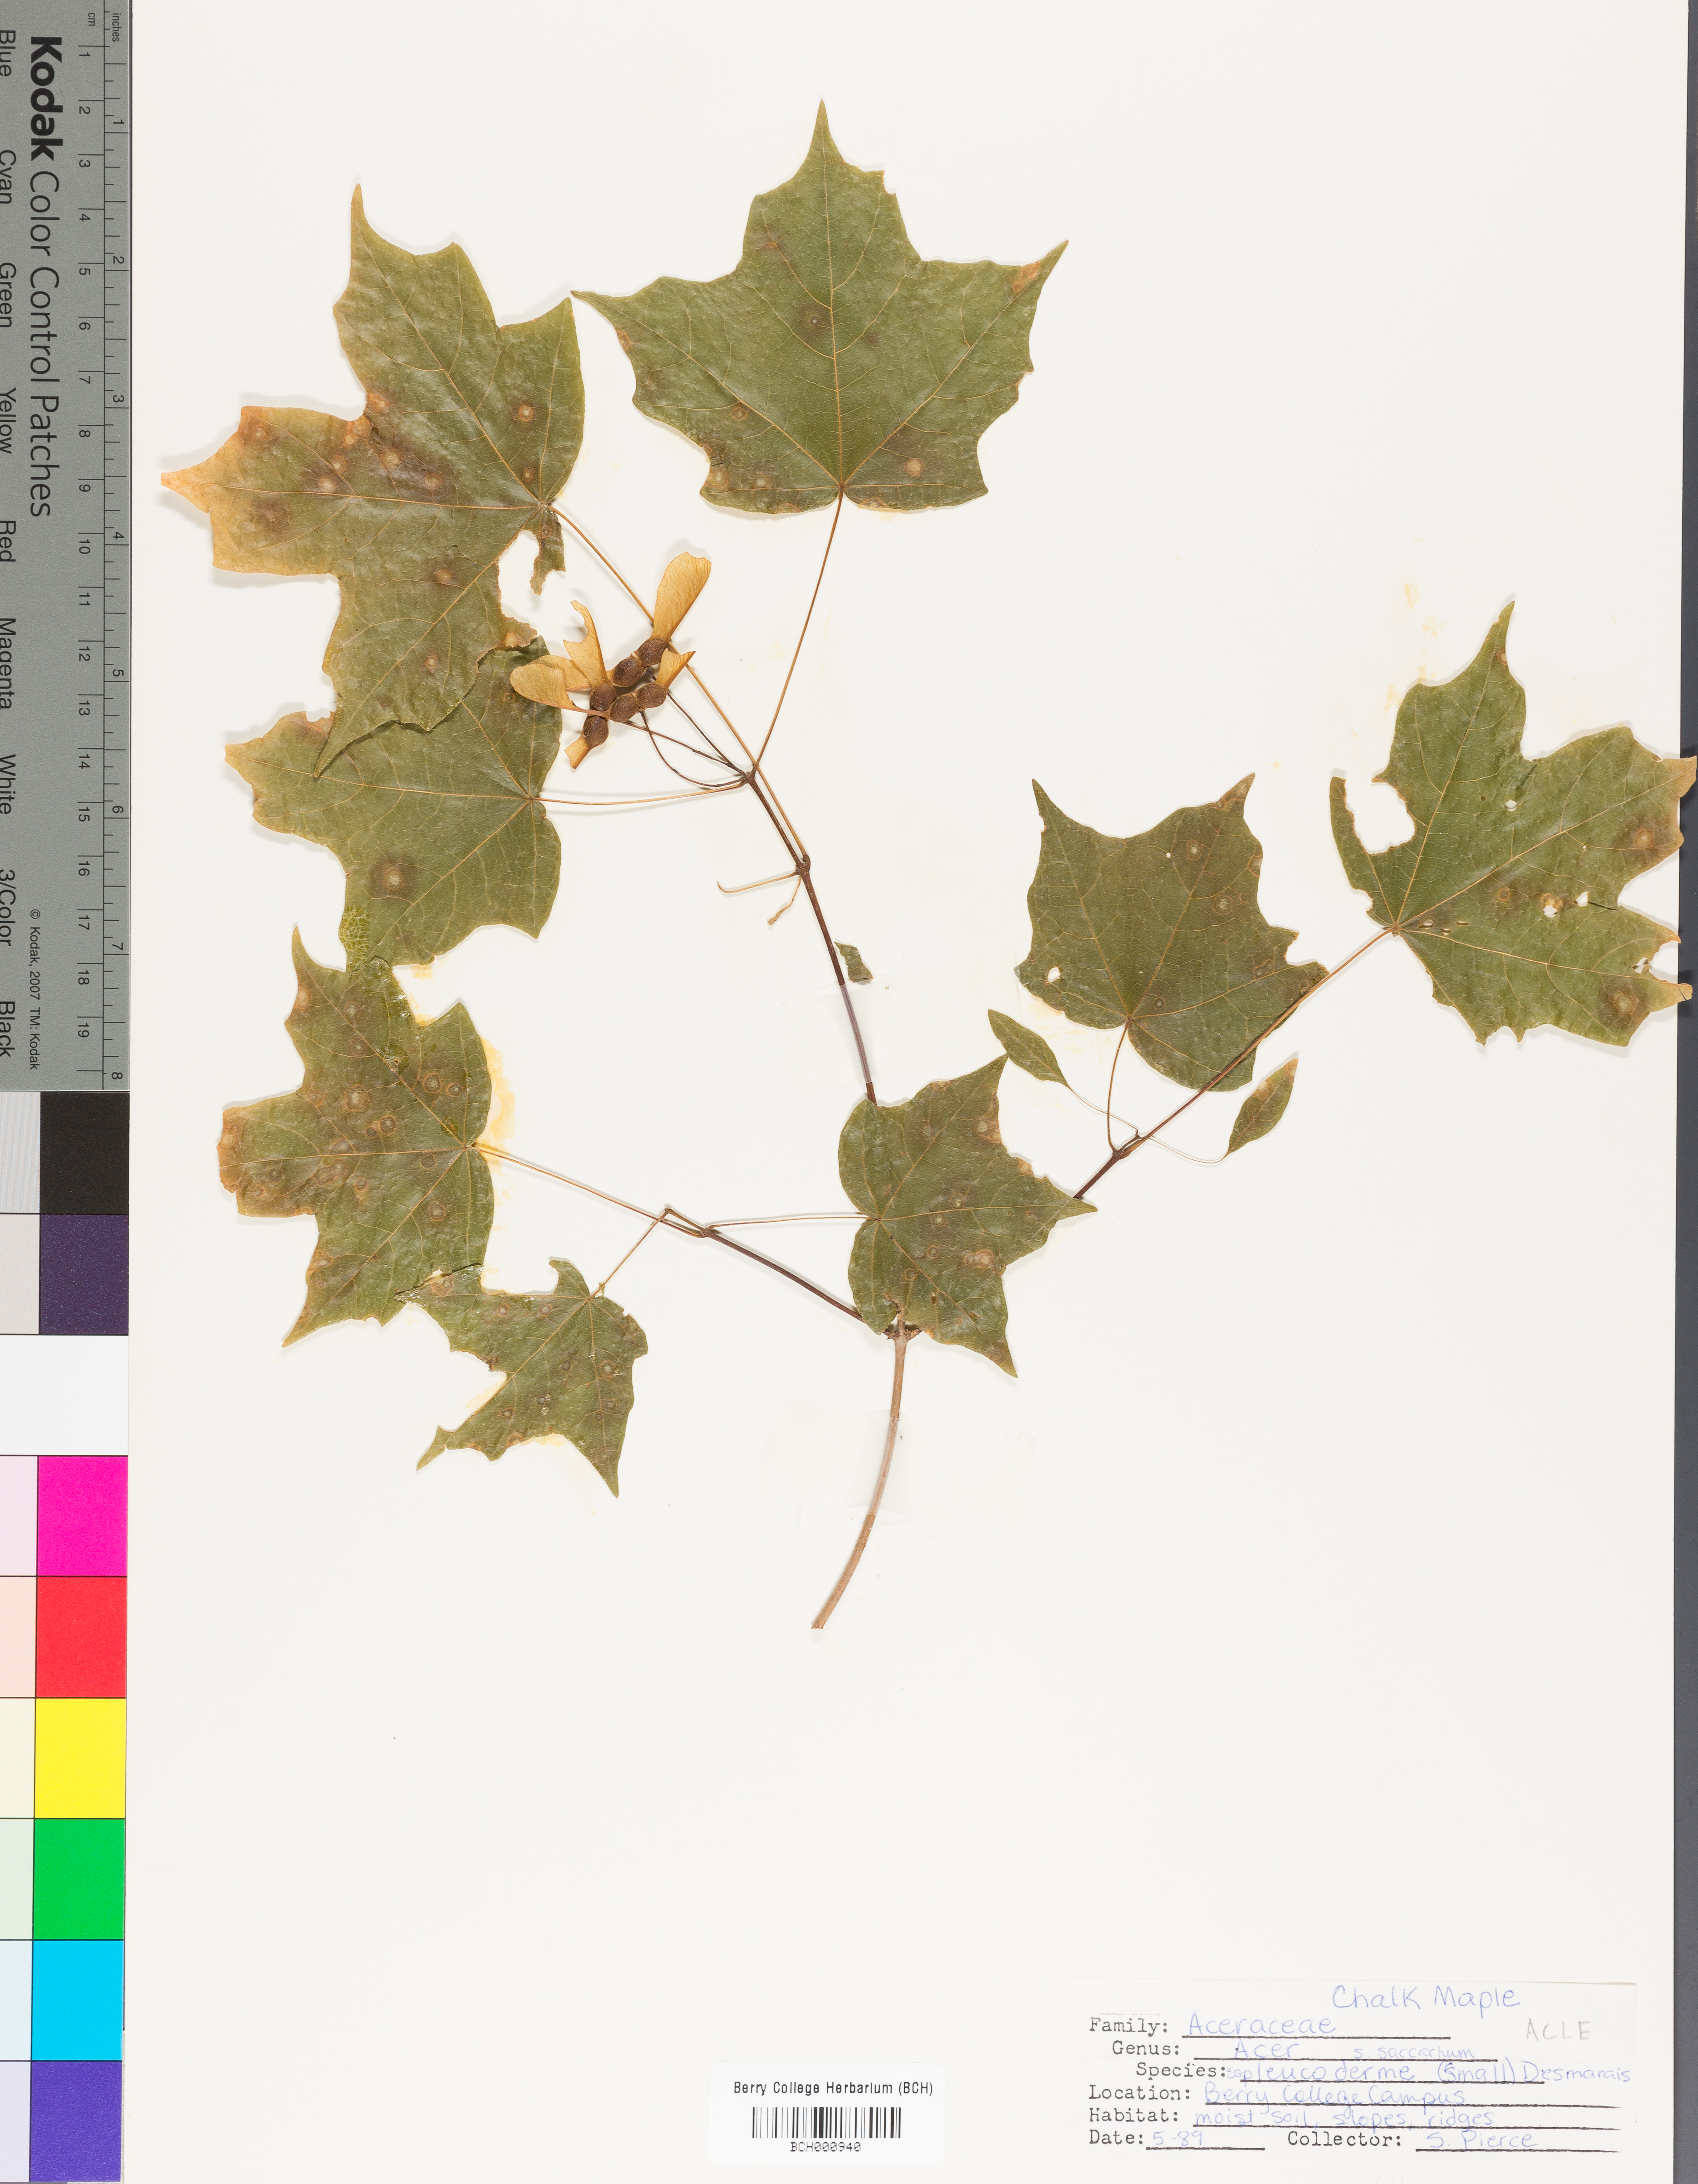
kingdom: Plantae
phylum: Tracheophyta
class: Magnoliopsida
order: Sapindales
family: Sapindaceae
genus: Acer
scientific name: Acer leucoderme
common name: Chalk maple
